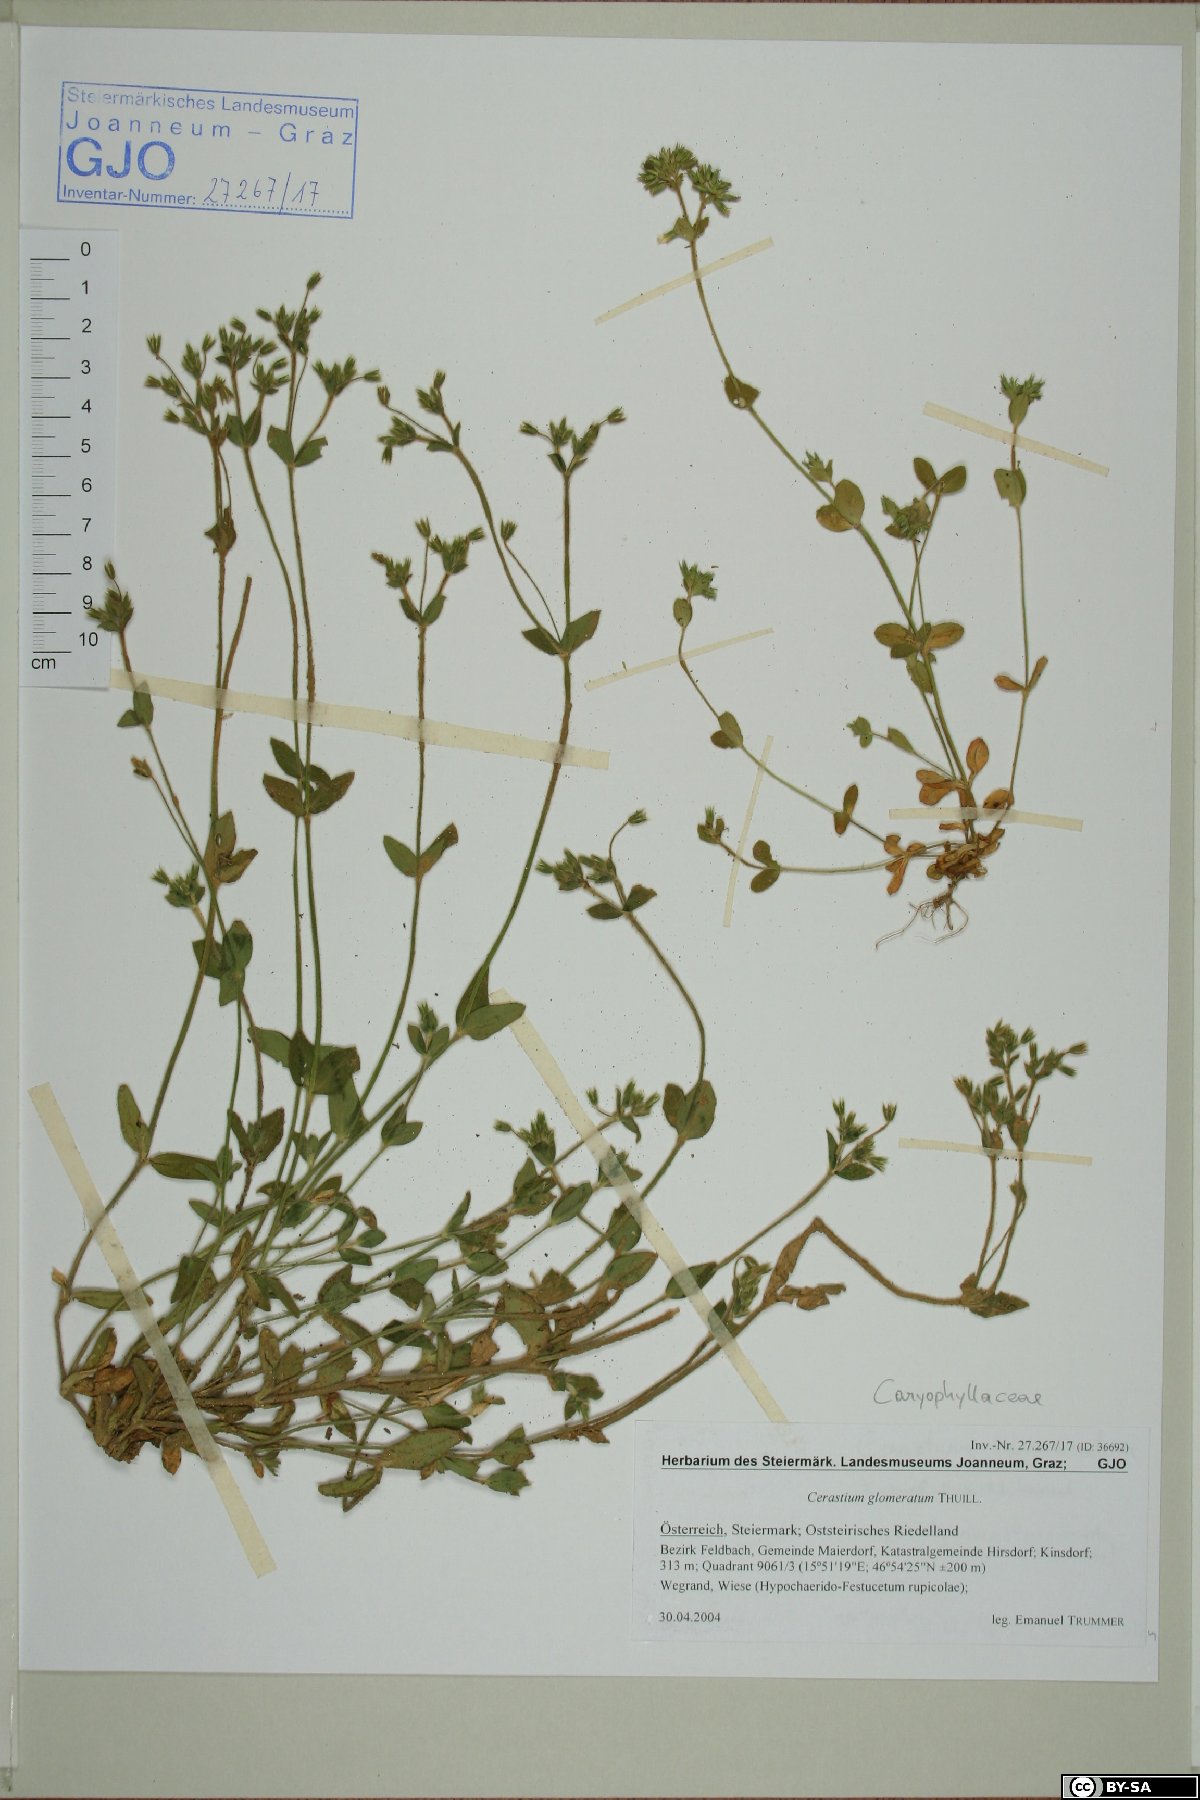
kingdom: Plantae
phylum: Tracheophyta
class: Magnoliopsida
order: Caryophyllales
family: Caryophyllaceae
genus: Cerastium
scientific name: Cerastium glomeratum
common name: Sticky chickweed
